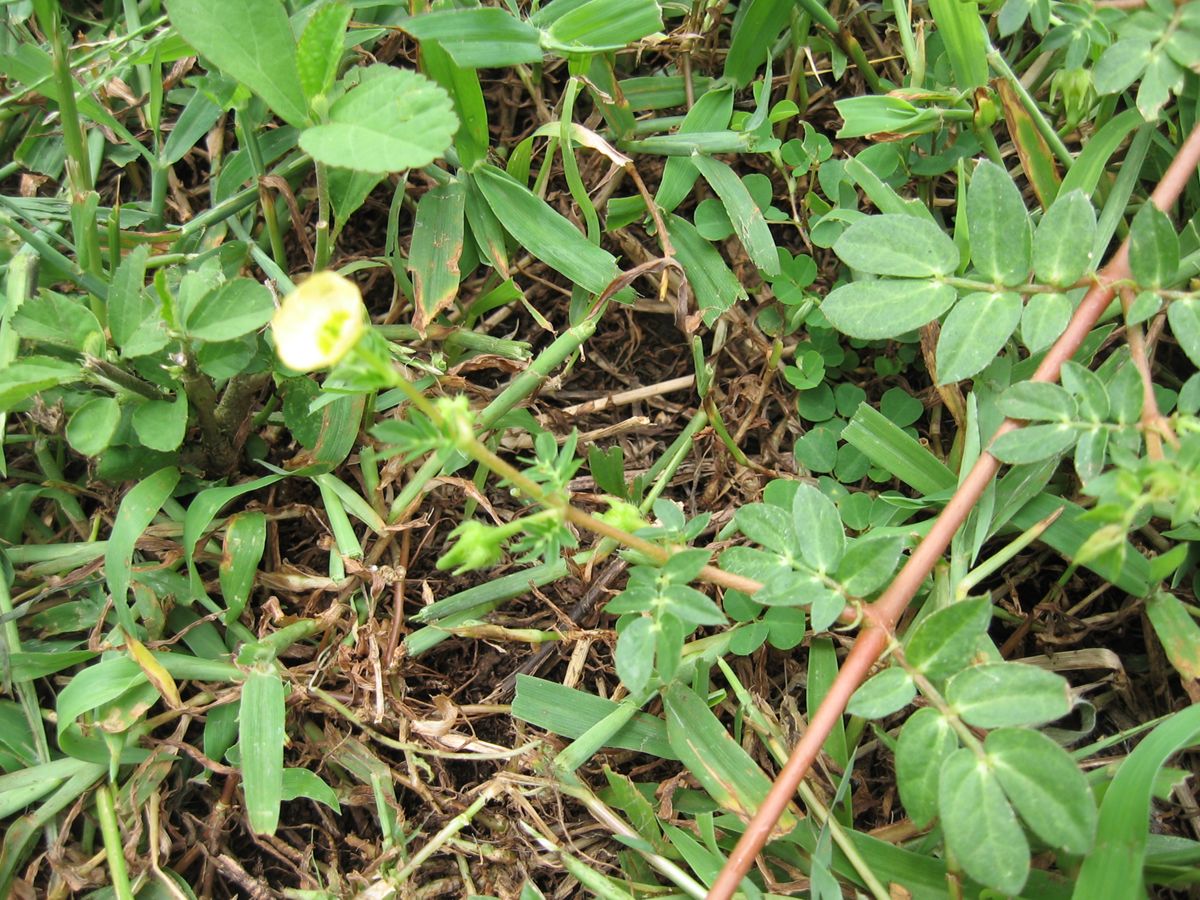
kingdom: Plantae
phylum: Tracheophyta
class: Magnoliopsida
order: Zygophyllales
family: Zygophyllaceae
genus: Kallstroemia
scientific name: Kallstroemia maxima
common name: Big caltropa
